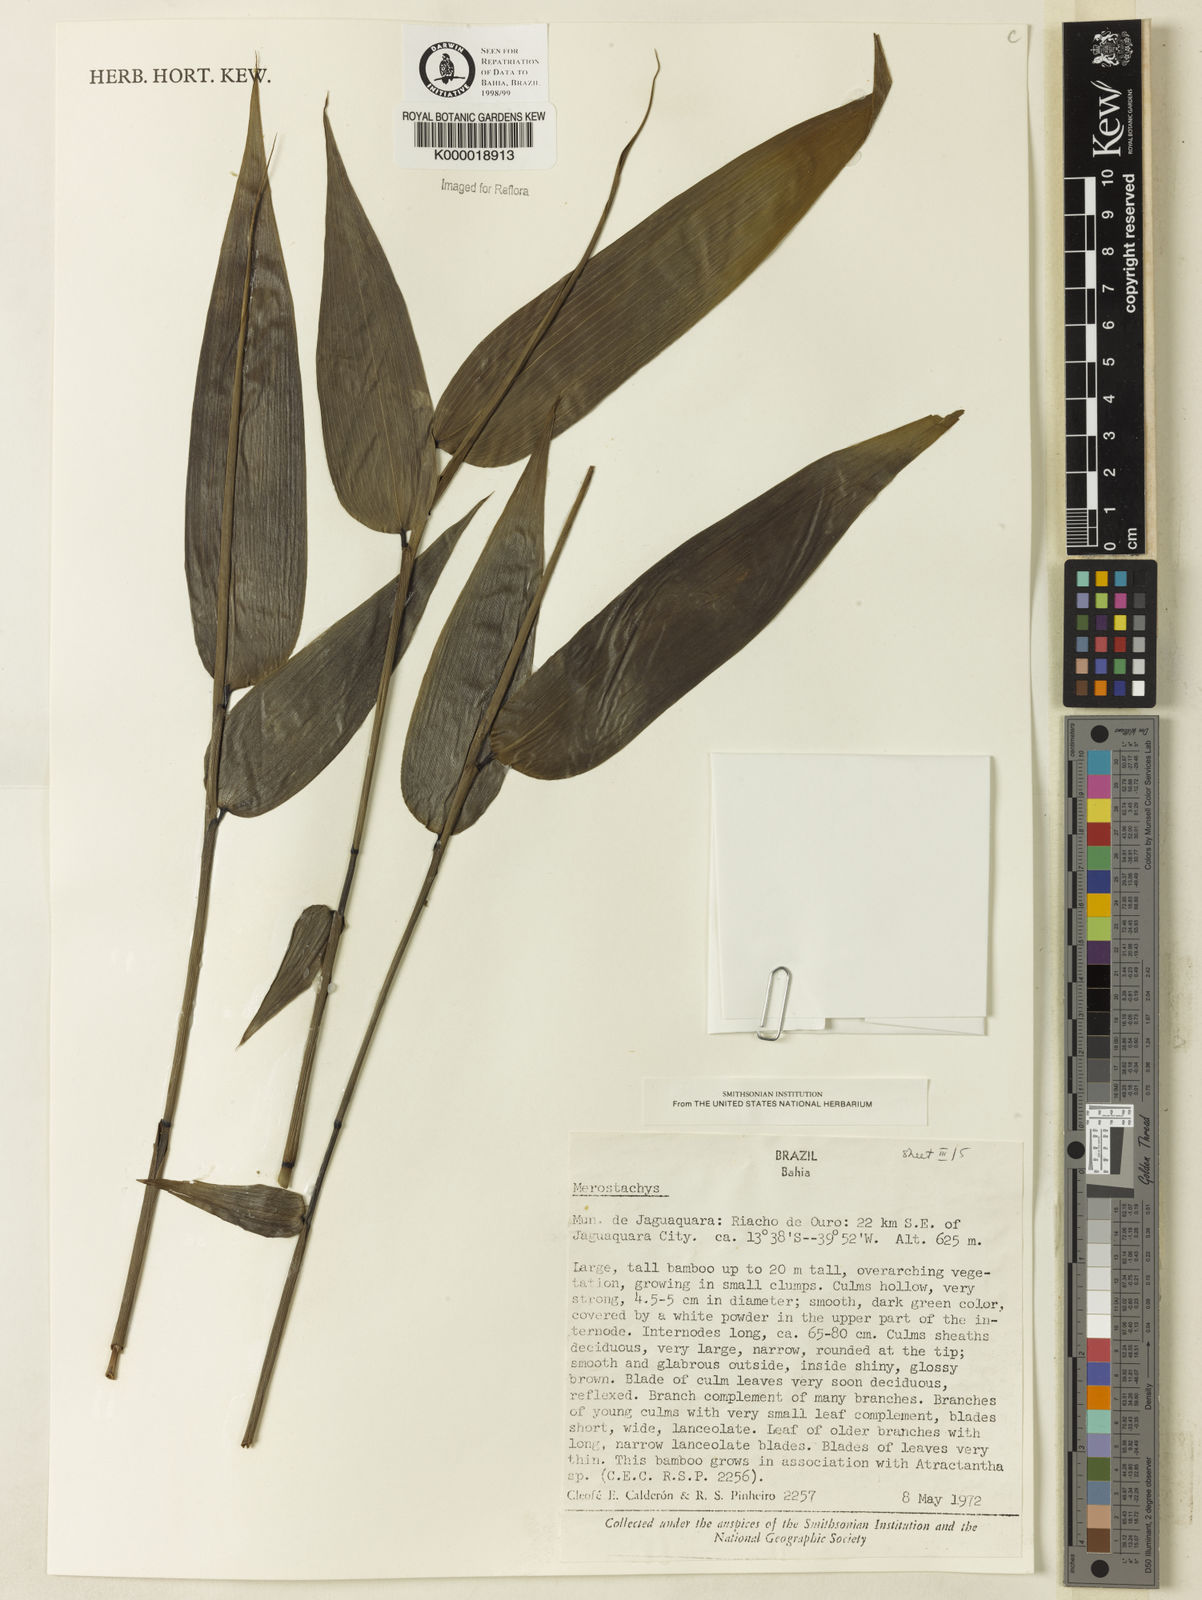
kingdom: Plantae
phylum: Tracheophyta
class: Liliopsida
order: Poales
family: Poaceae
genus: Merostachys
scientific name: Merostachys
